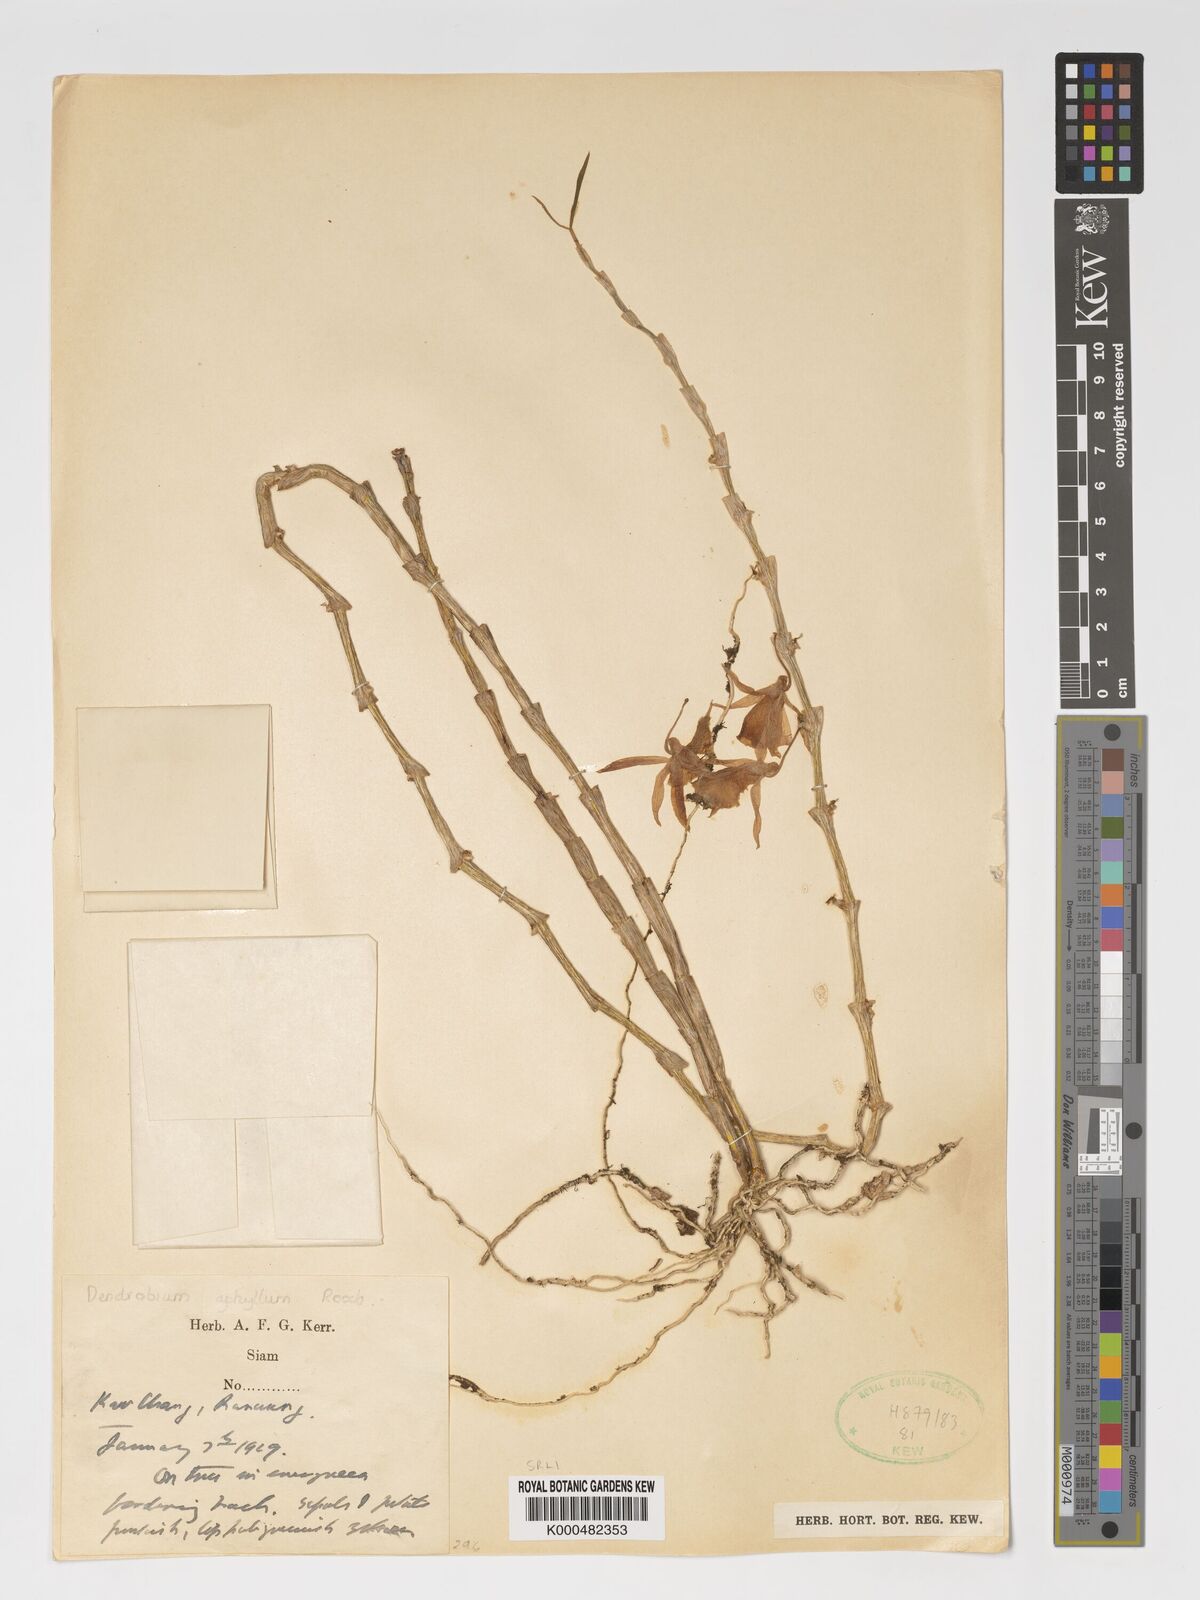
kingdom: Plantae
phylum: Tracheophyta
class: Liliopsida
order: Asparagales
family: Orchidaceae
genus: Dendrobium
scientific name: Dendrobium macrostachyum
